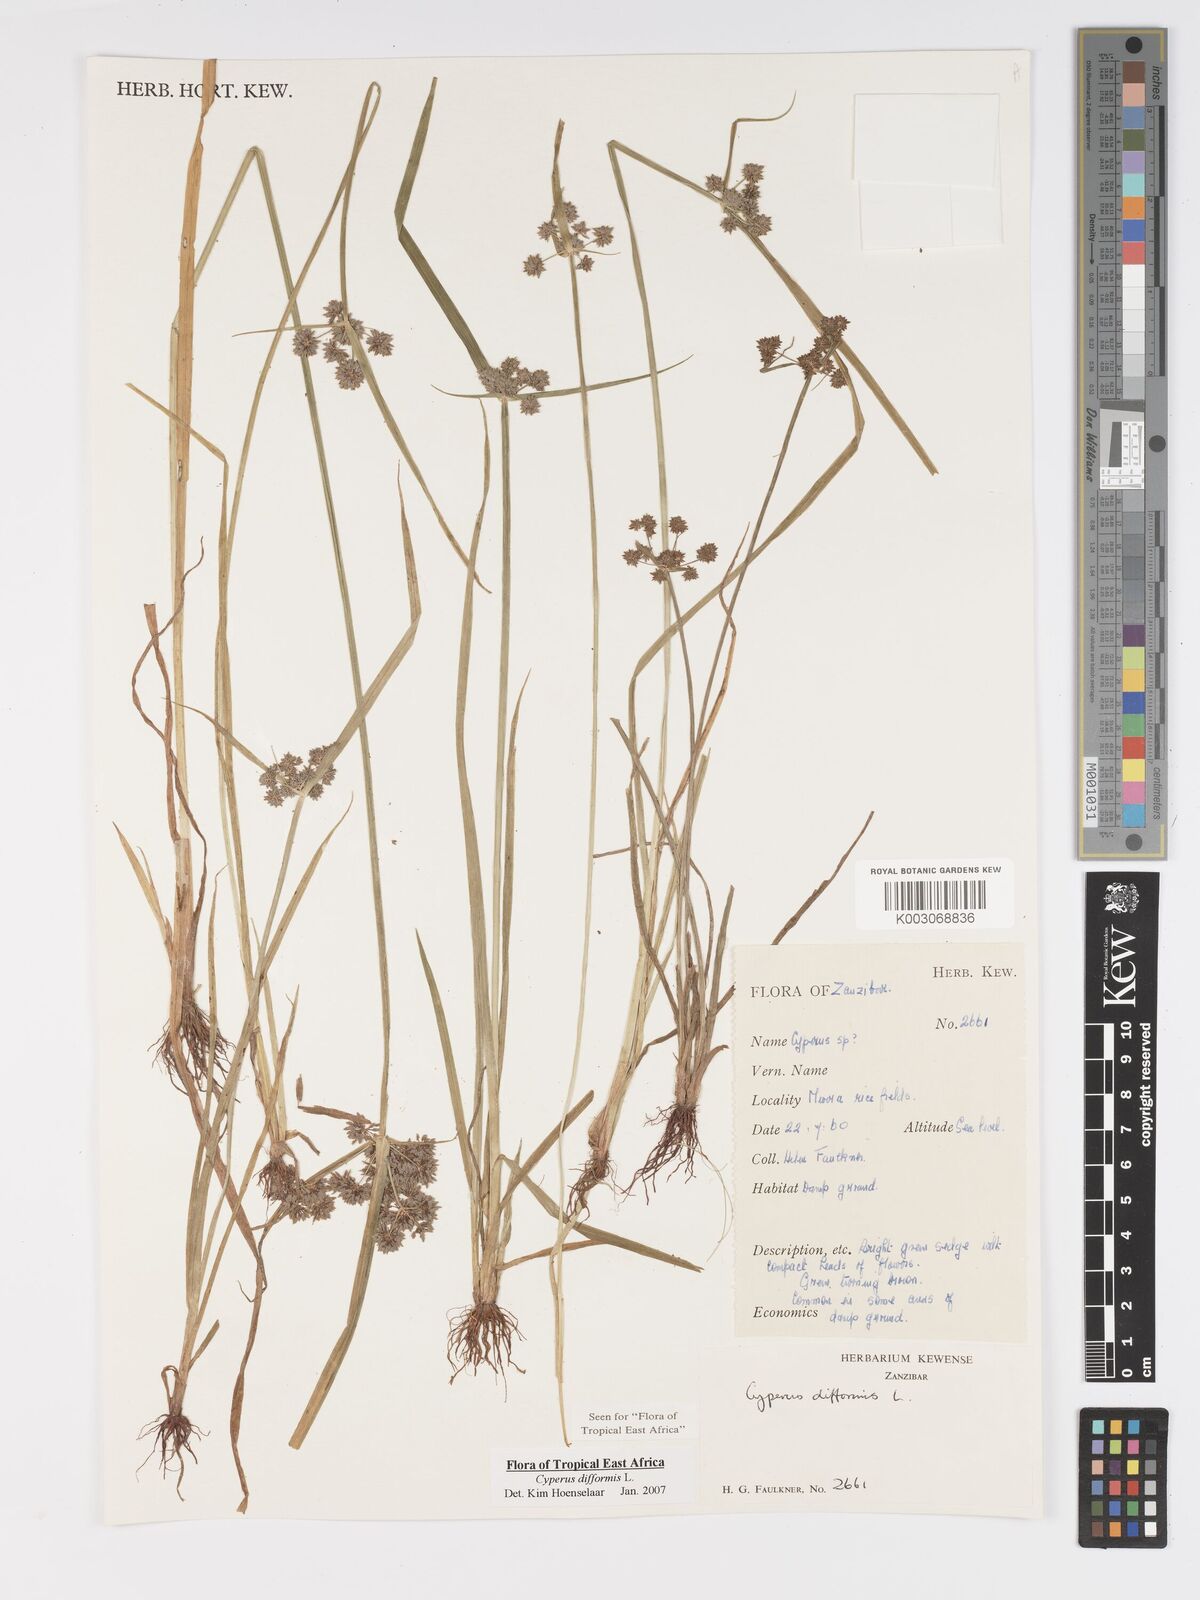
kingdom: Plantae
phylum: Tracheophyta
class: Liliopsida
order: Poales
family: Cyperaceae
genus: Cyperus
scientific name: Cyperus difformis
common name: Variable flatsedge
